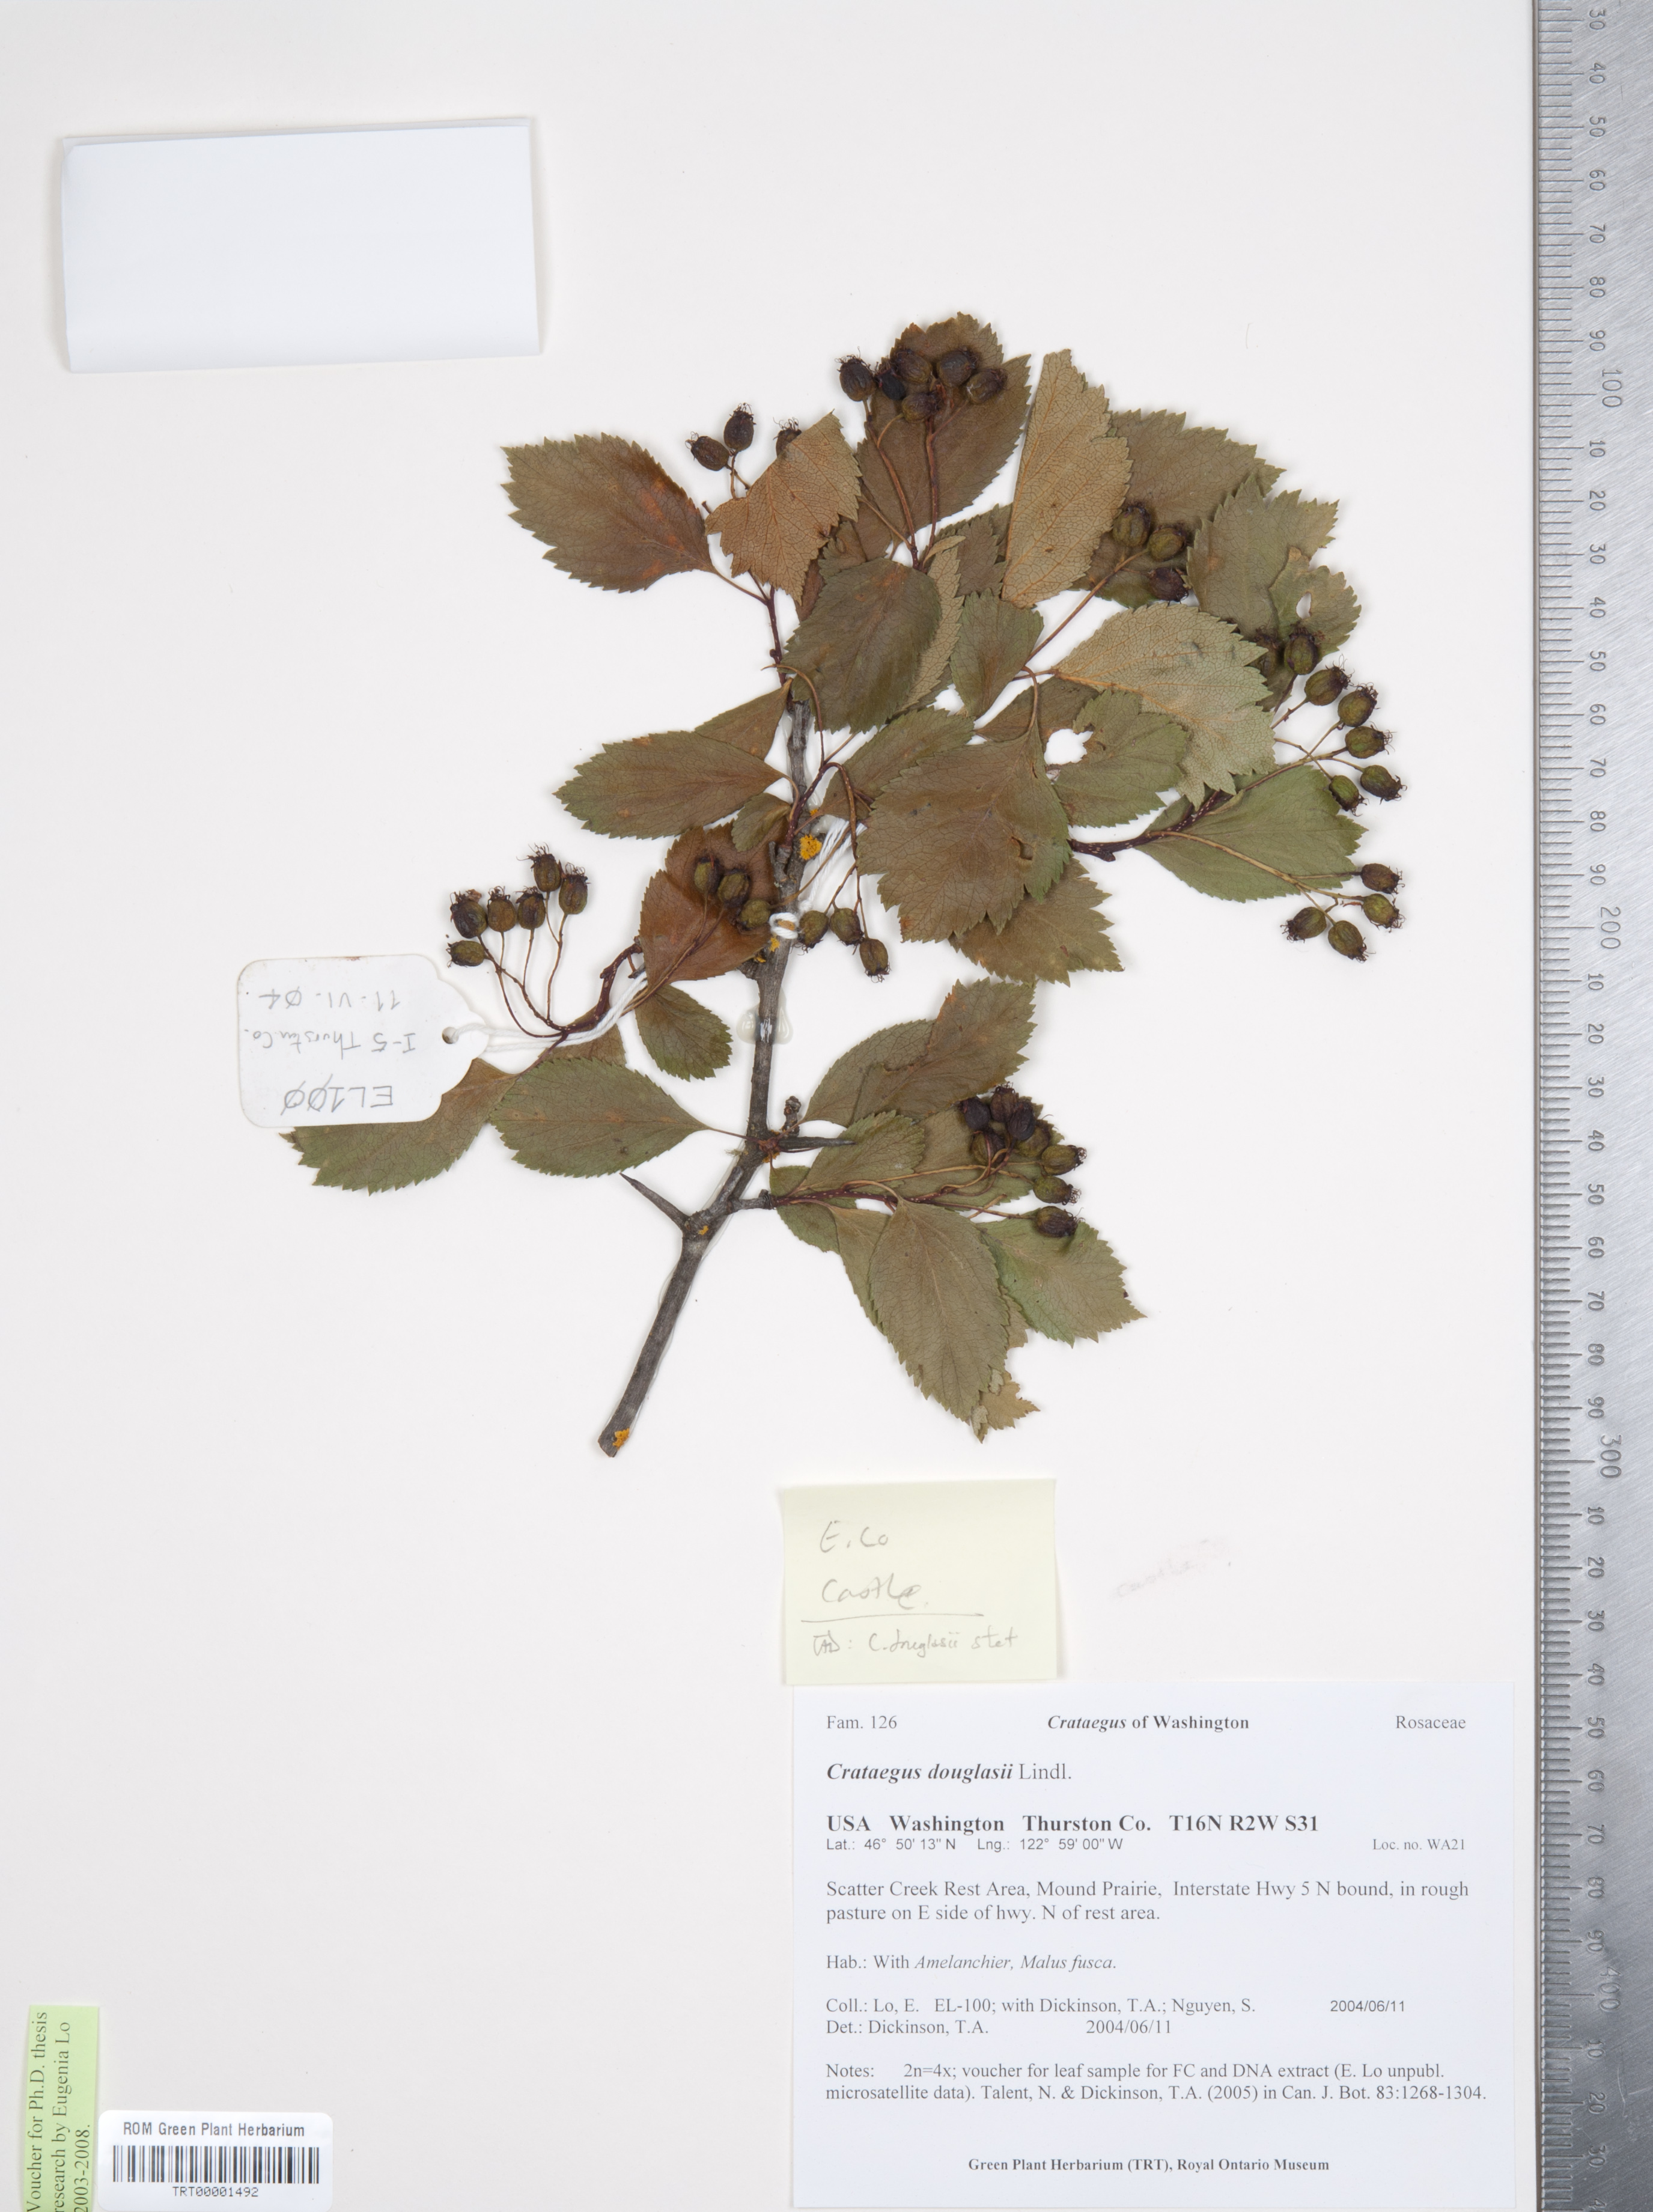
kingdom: Plantae
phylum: Tracheophyta
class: Magnoliopsida
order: Rosales
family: Rosaceae
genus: Crataegus
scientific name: Crataegus douglasii
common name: Black hawthorn
